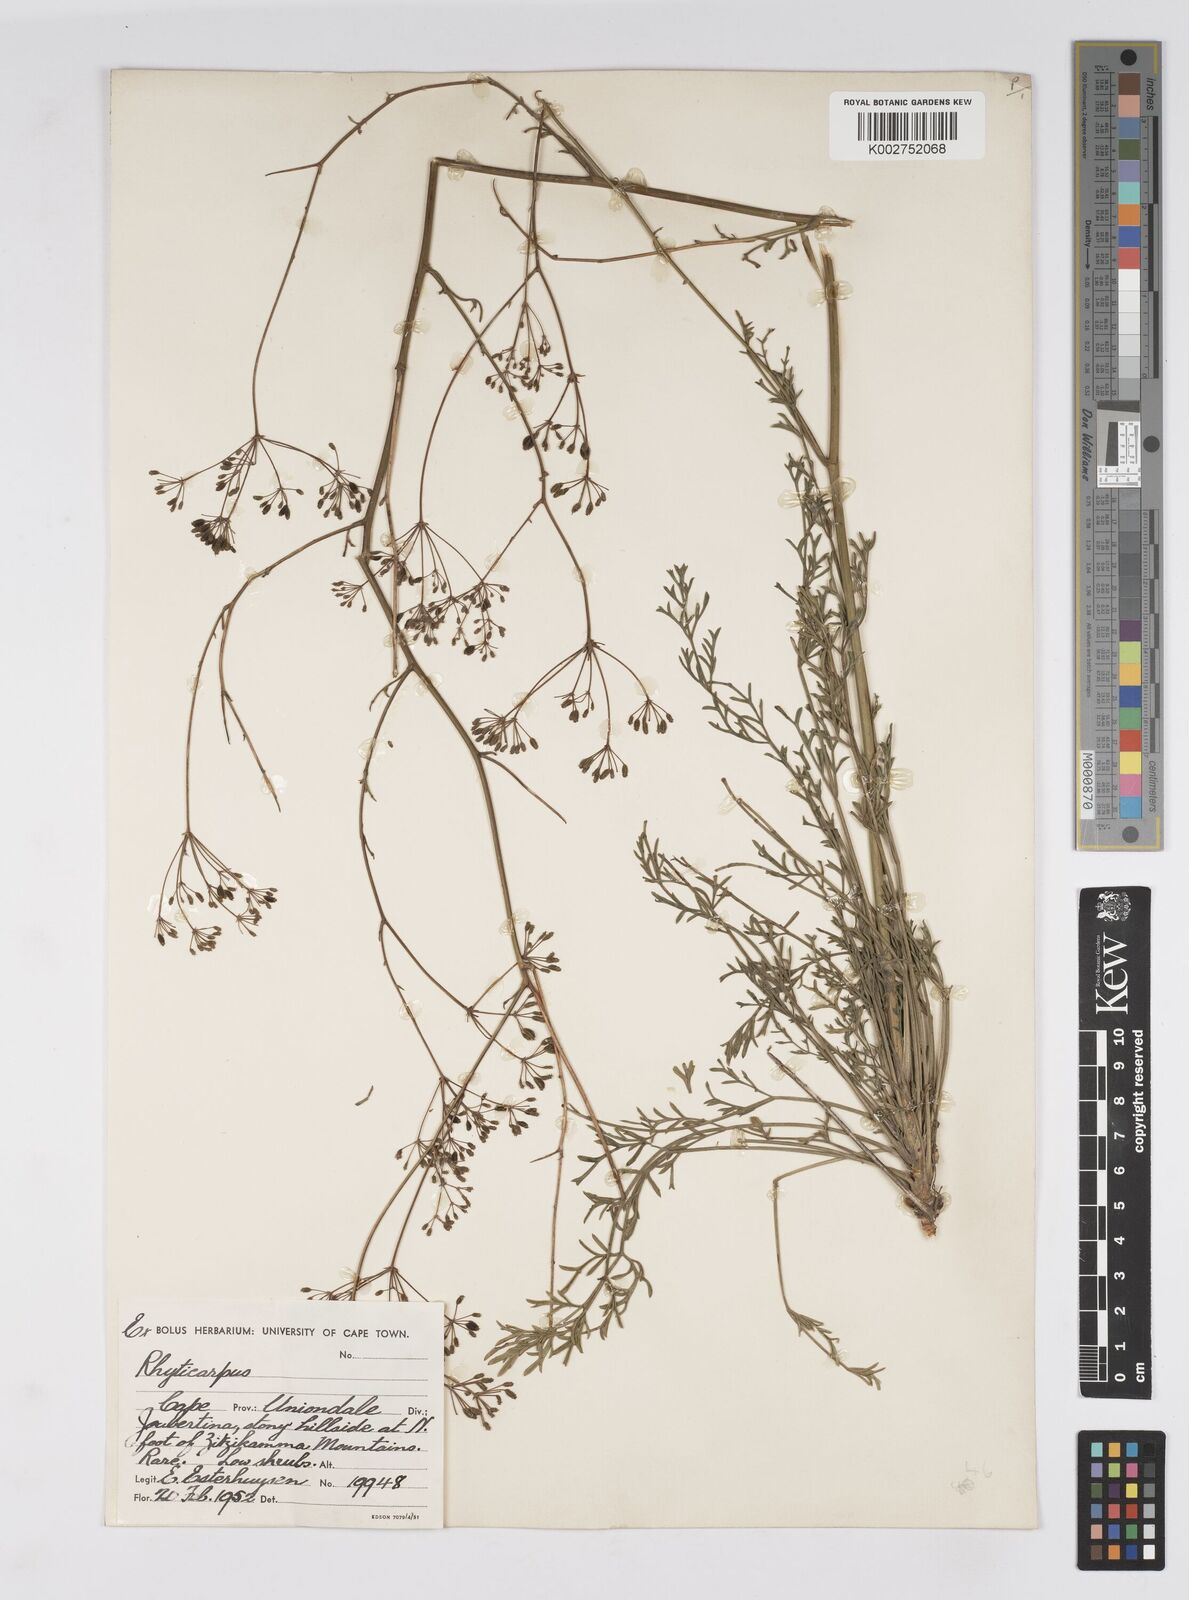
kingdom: Plantae
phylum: Tracheophyta
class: Magnoliopsida
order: Apiales
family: Apiaceae
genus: Anginon
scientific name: Anginon rugosum
